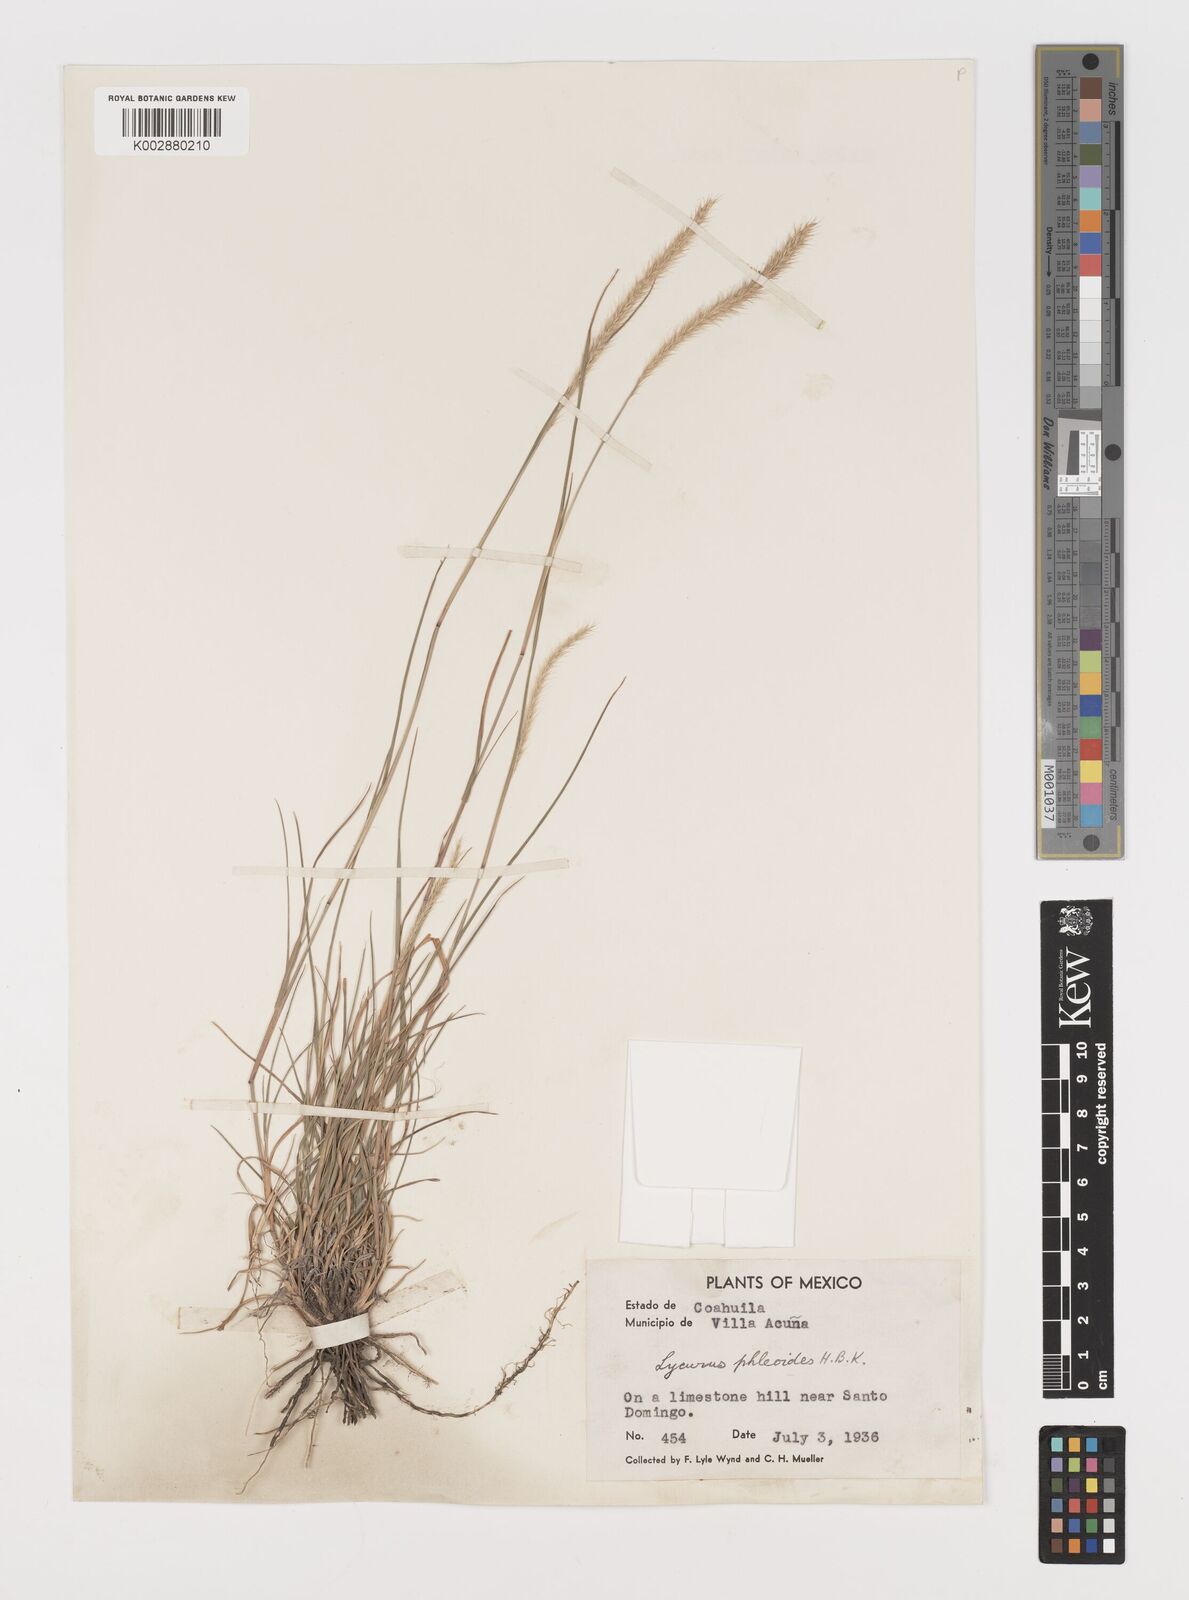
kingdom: Plantae
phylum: Tracheophyta
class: Liliopsida
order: Poales
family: Poaceae
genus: Muhlenbergia
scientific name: Muhlenbergia phleoides
